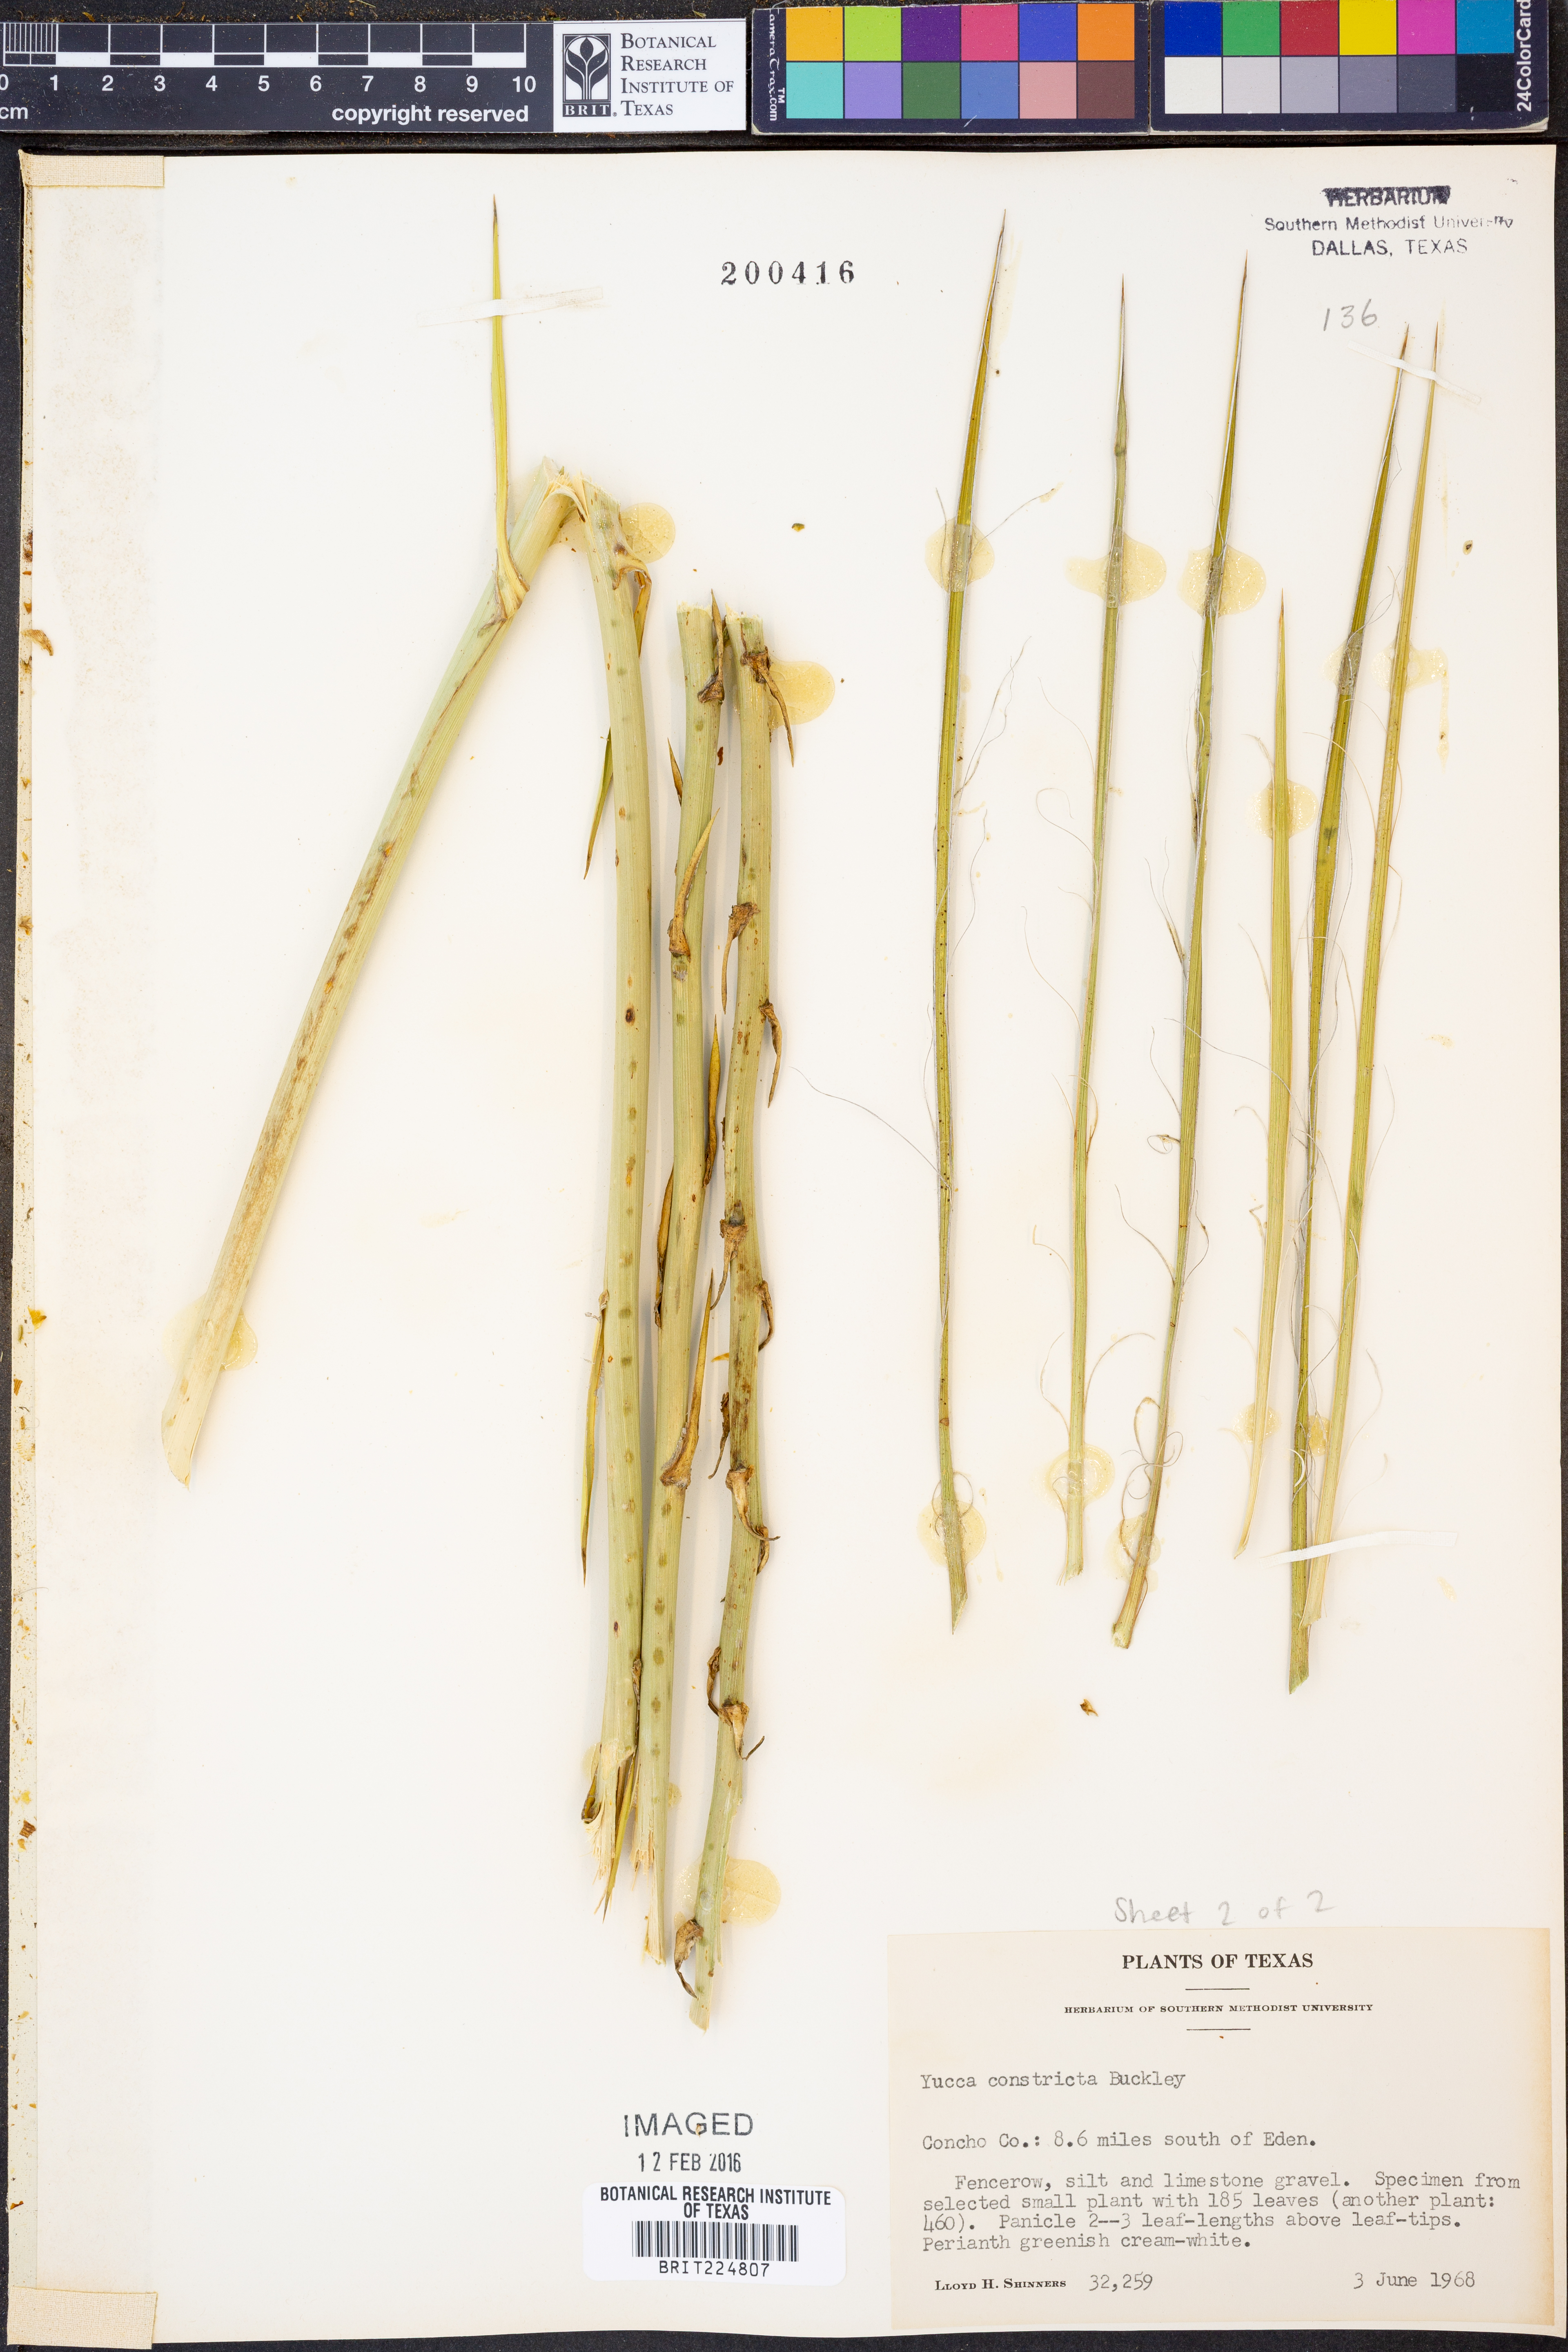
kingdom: Plantae
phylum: Tracheophyta
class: Liliopsida
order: Asparagales
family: Asparagaceae
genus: Yucca
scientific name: Yucca constricta
